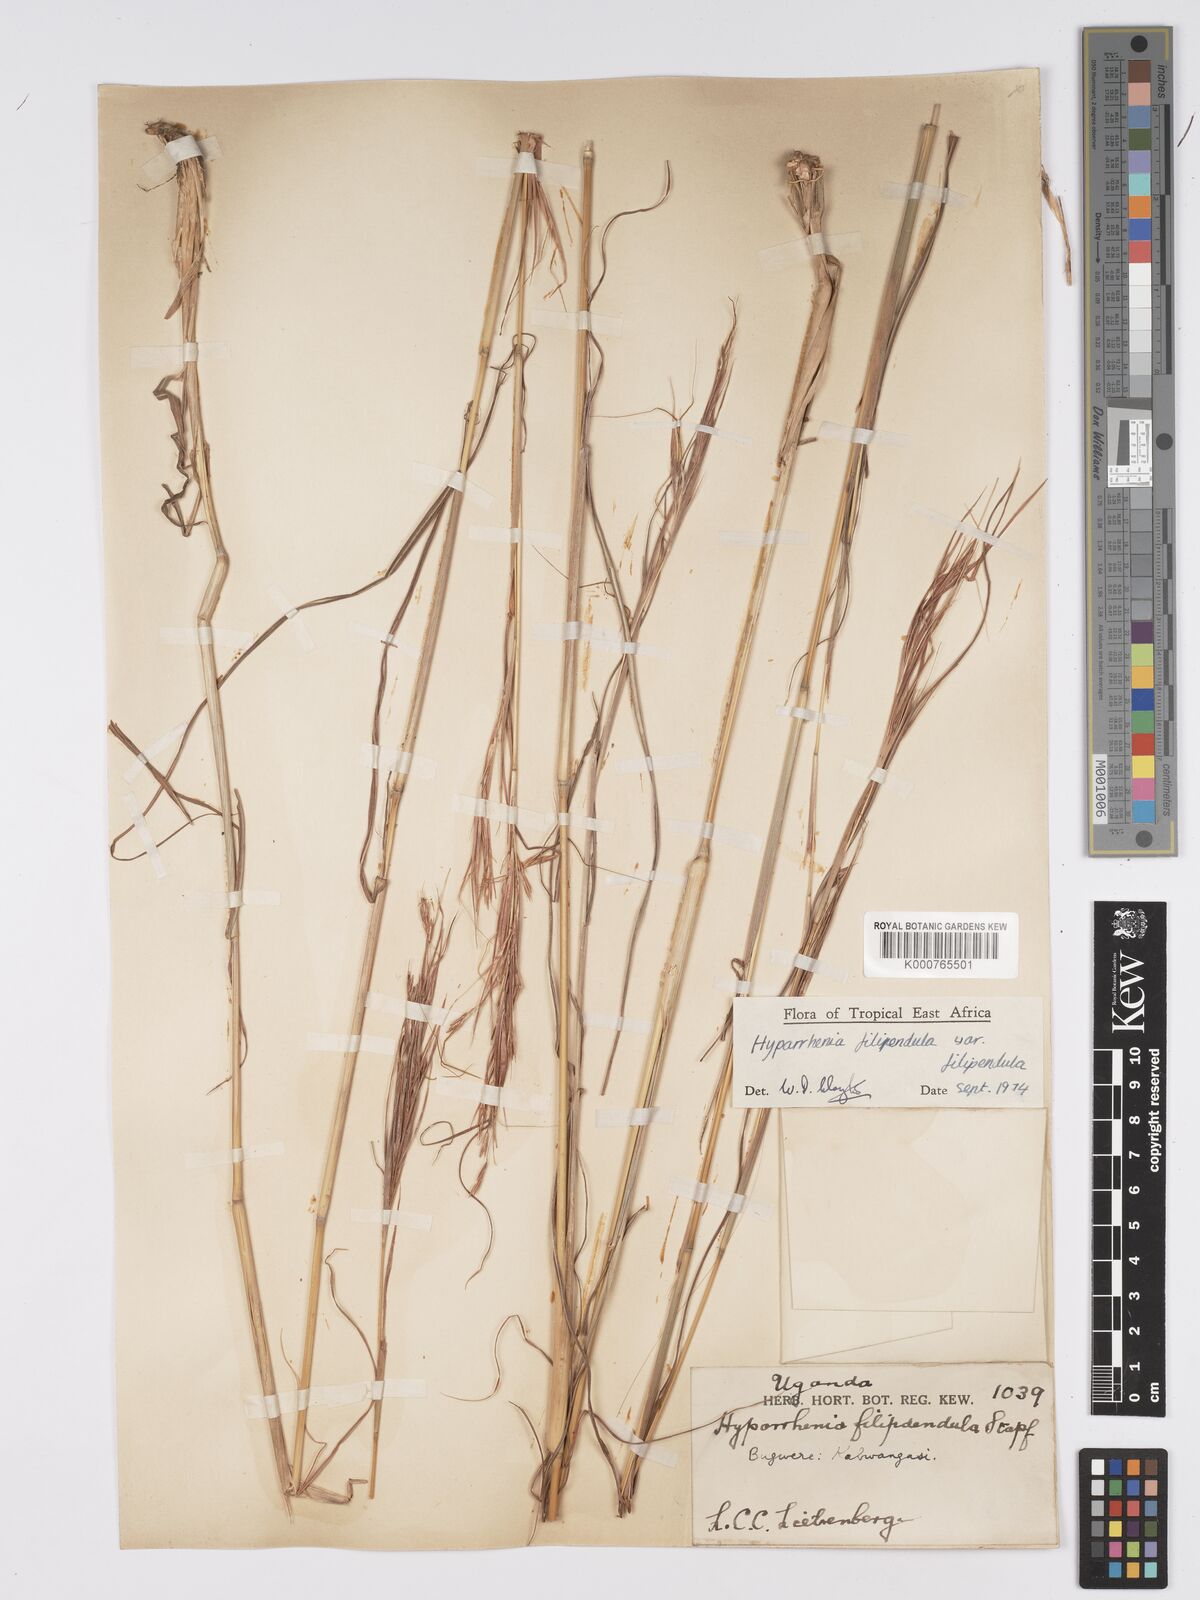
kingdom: Plantae
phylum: Tracheophyta
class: Liliopsida
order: Poales
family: Poaceae
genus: Hyparrhenia
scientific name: Hyparrhenia filipendula
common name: Tambookie grass
